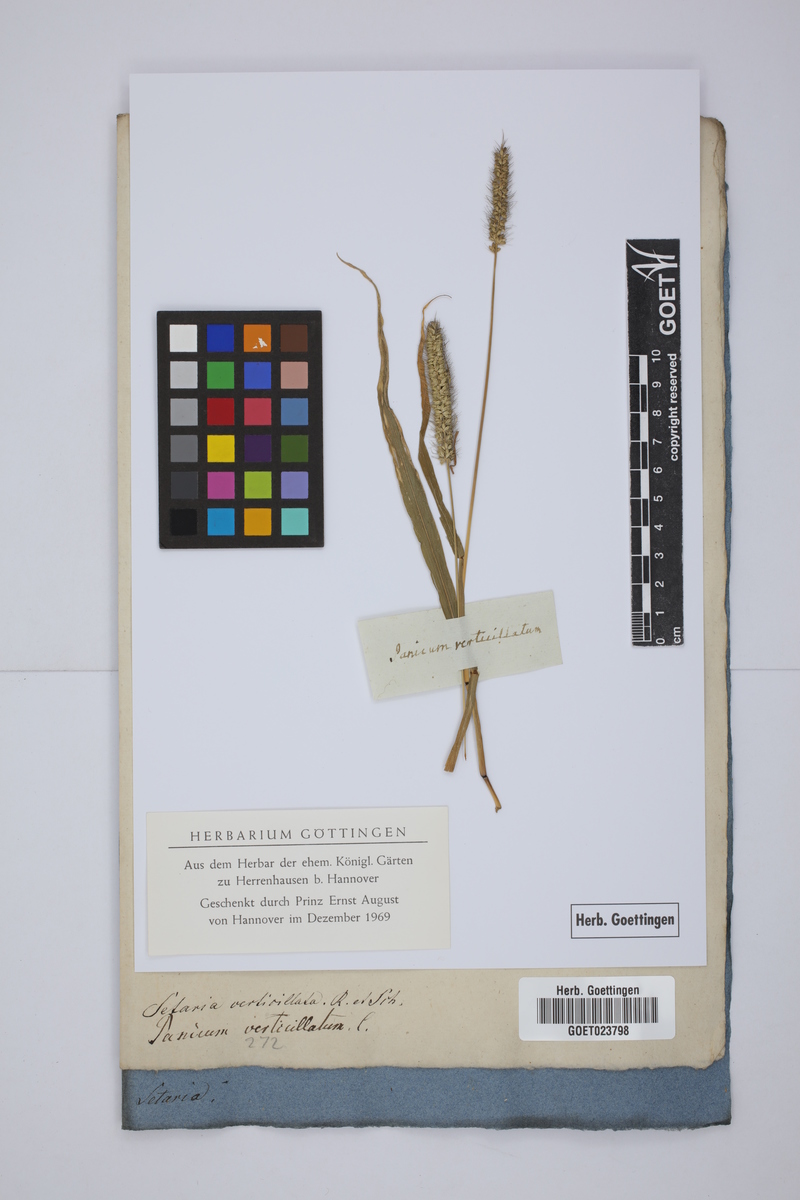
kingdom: Plantae
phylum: Tracheophyta
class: Liliopsida
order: Poales
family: Poaceae
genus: Setaria
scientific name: Setaria verticillata
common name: Hooked bristlegrass
